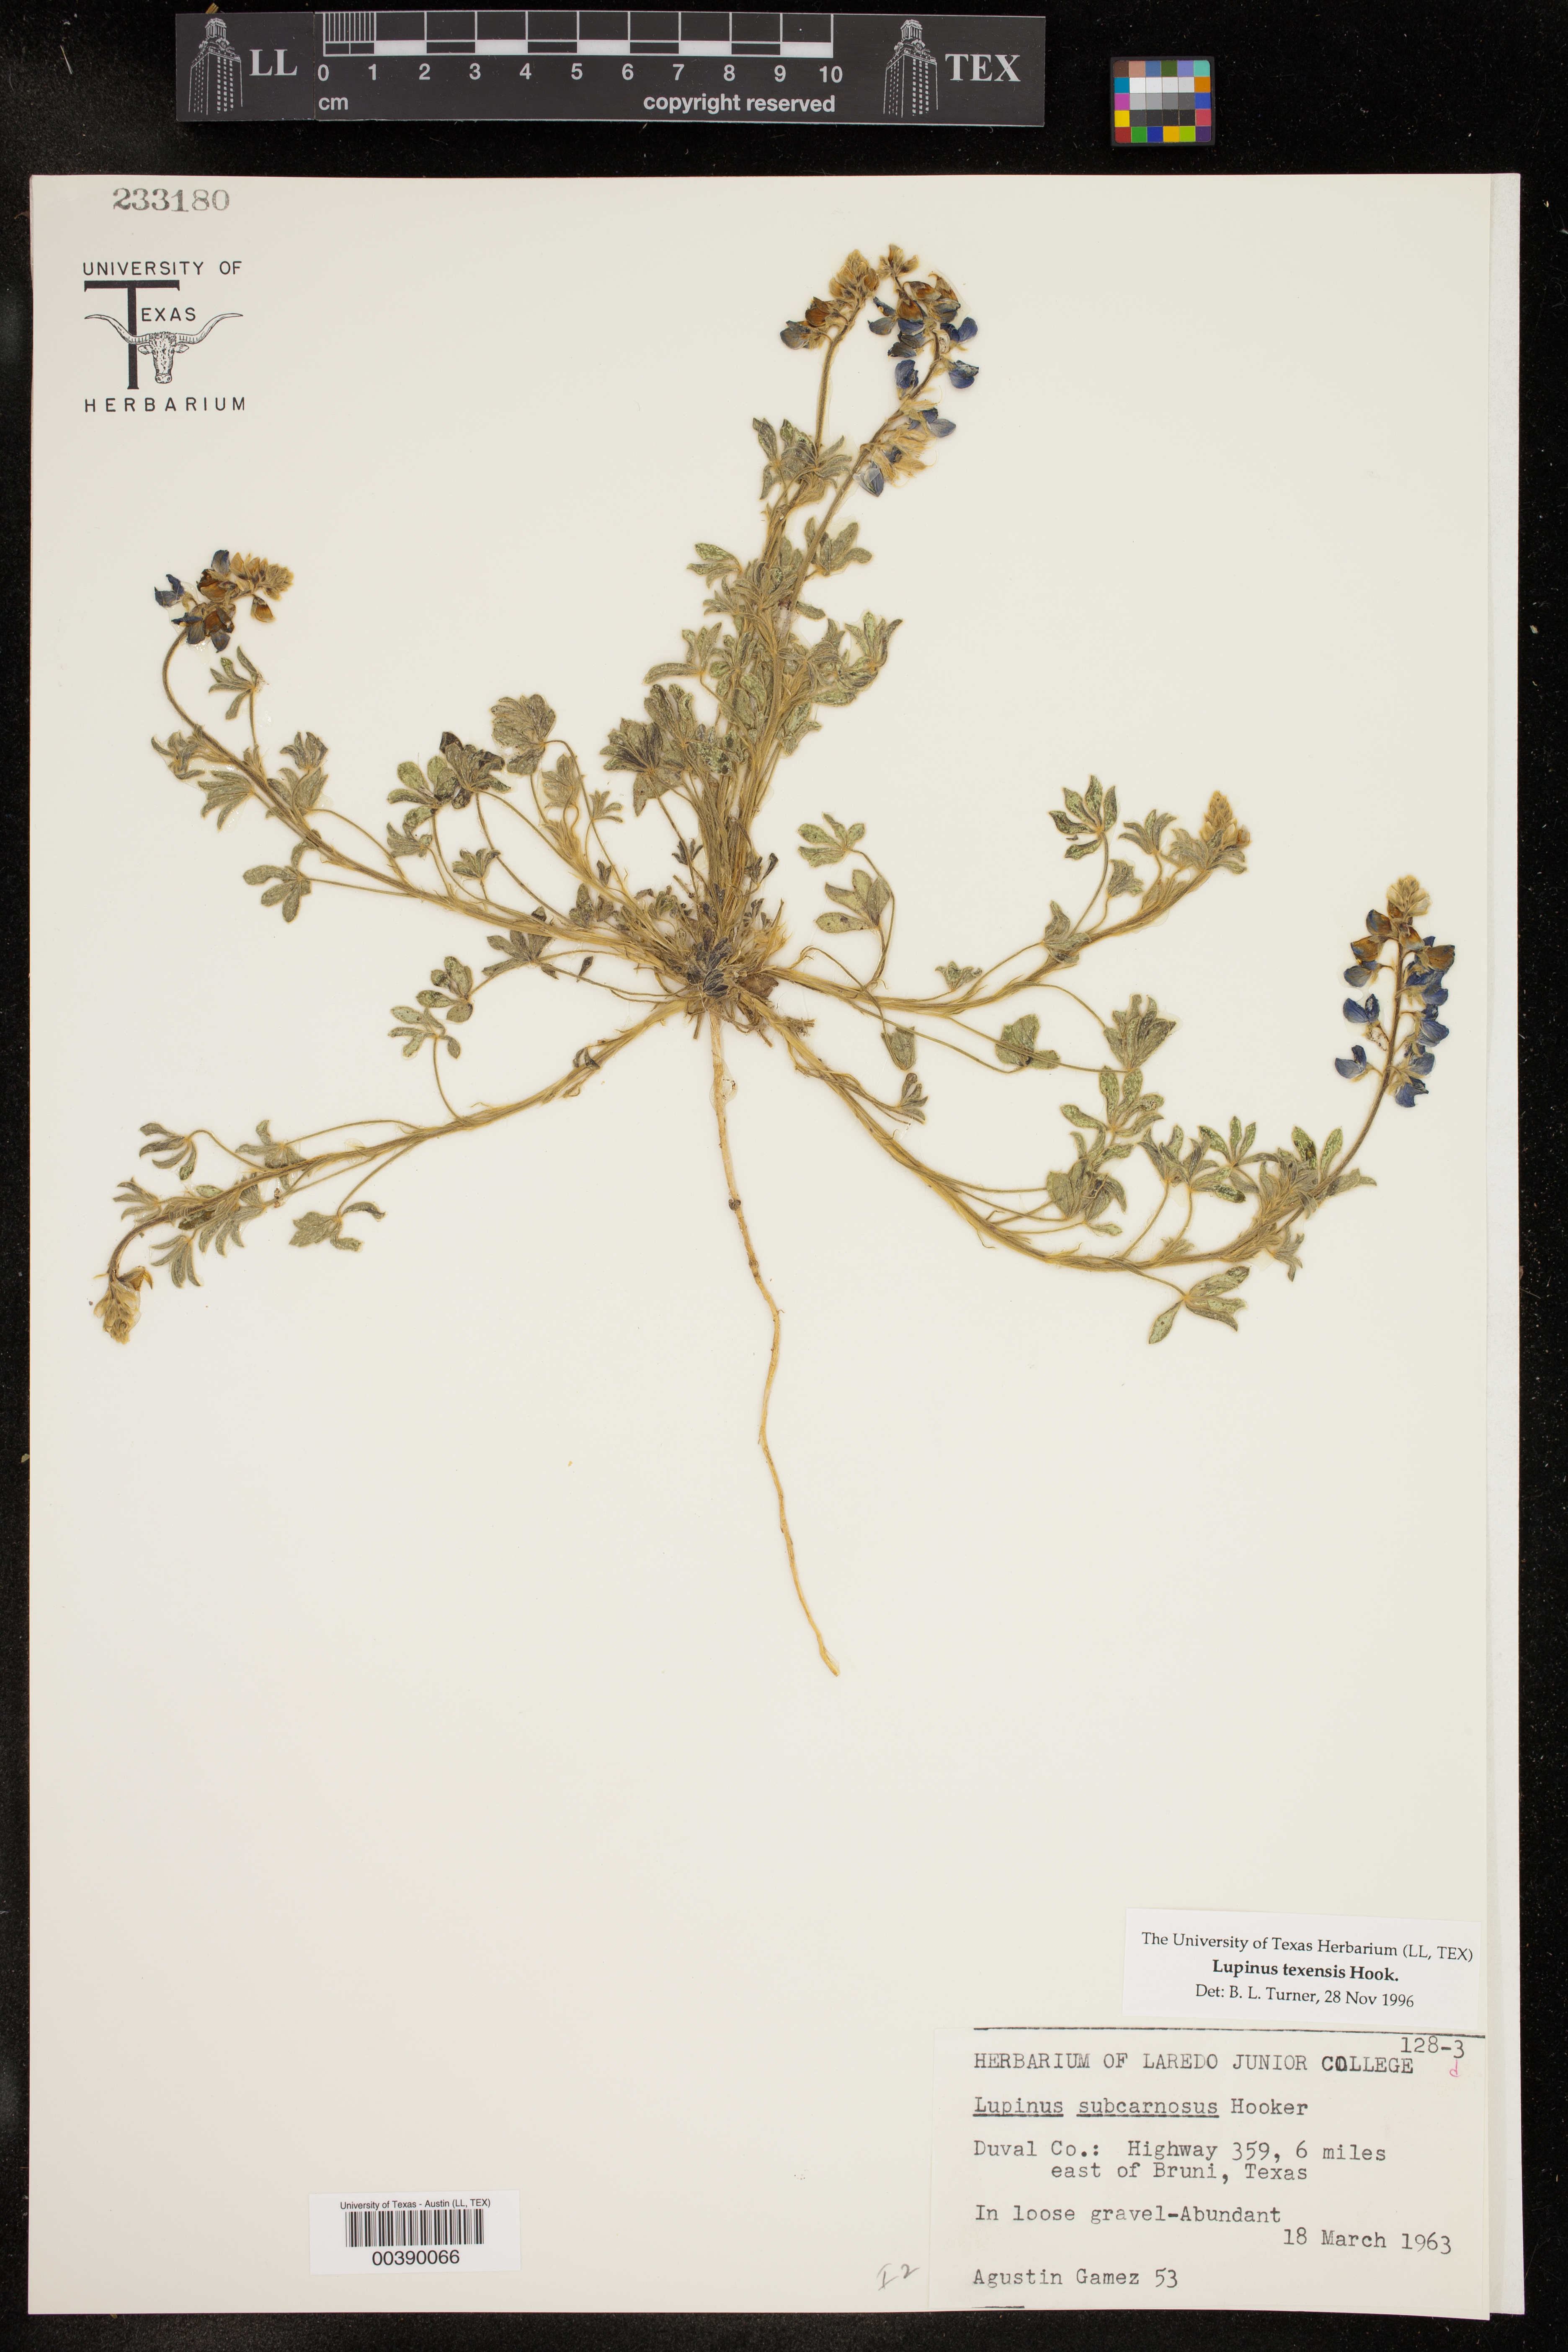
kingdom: Plantae
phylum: Tracheophyta
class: Magnoliopsida
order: Fabales
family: Fabaceae
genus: Lupinus
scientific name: Lupinus texensis
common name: Texas bluebonnet
